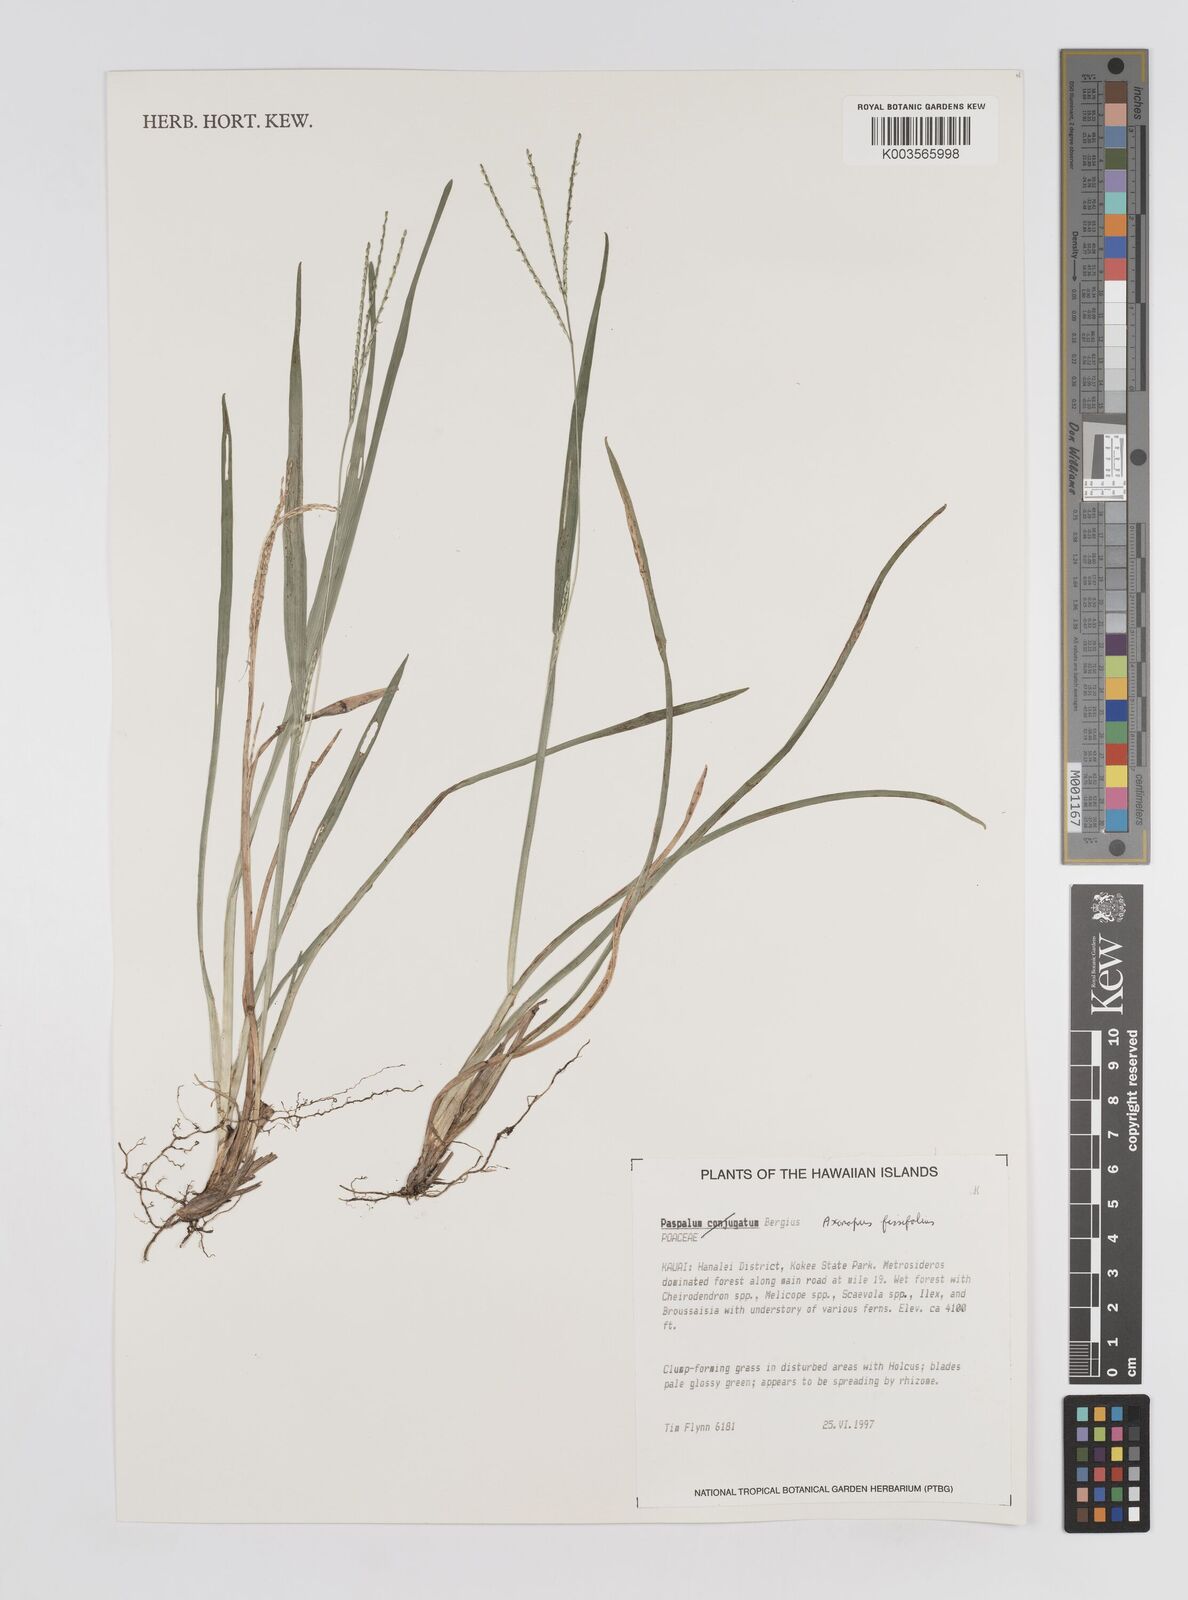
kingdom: Plantae
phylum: Tracheophyta
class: Liliopsida
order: Poales
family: Poaceae
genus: Axonopus
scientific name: Axonopus fissifolius
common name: Common carpetgrass
